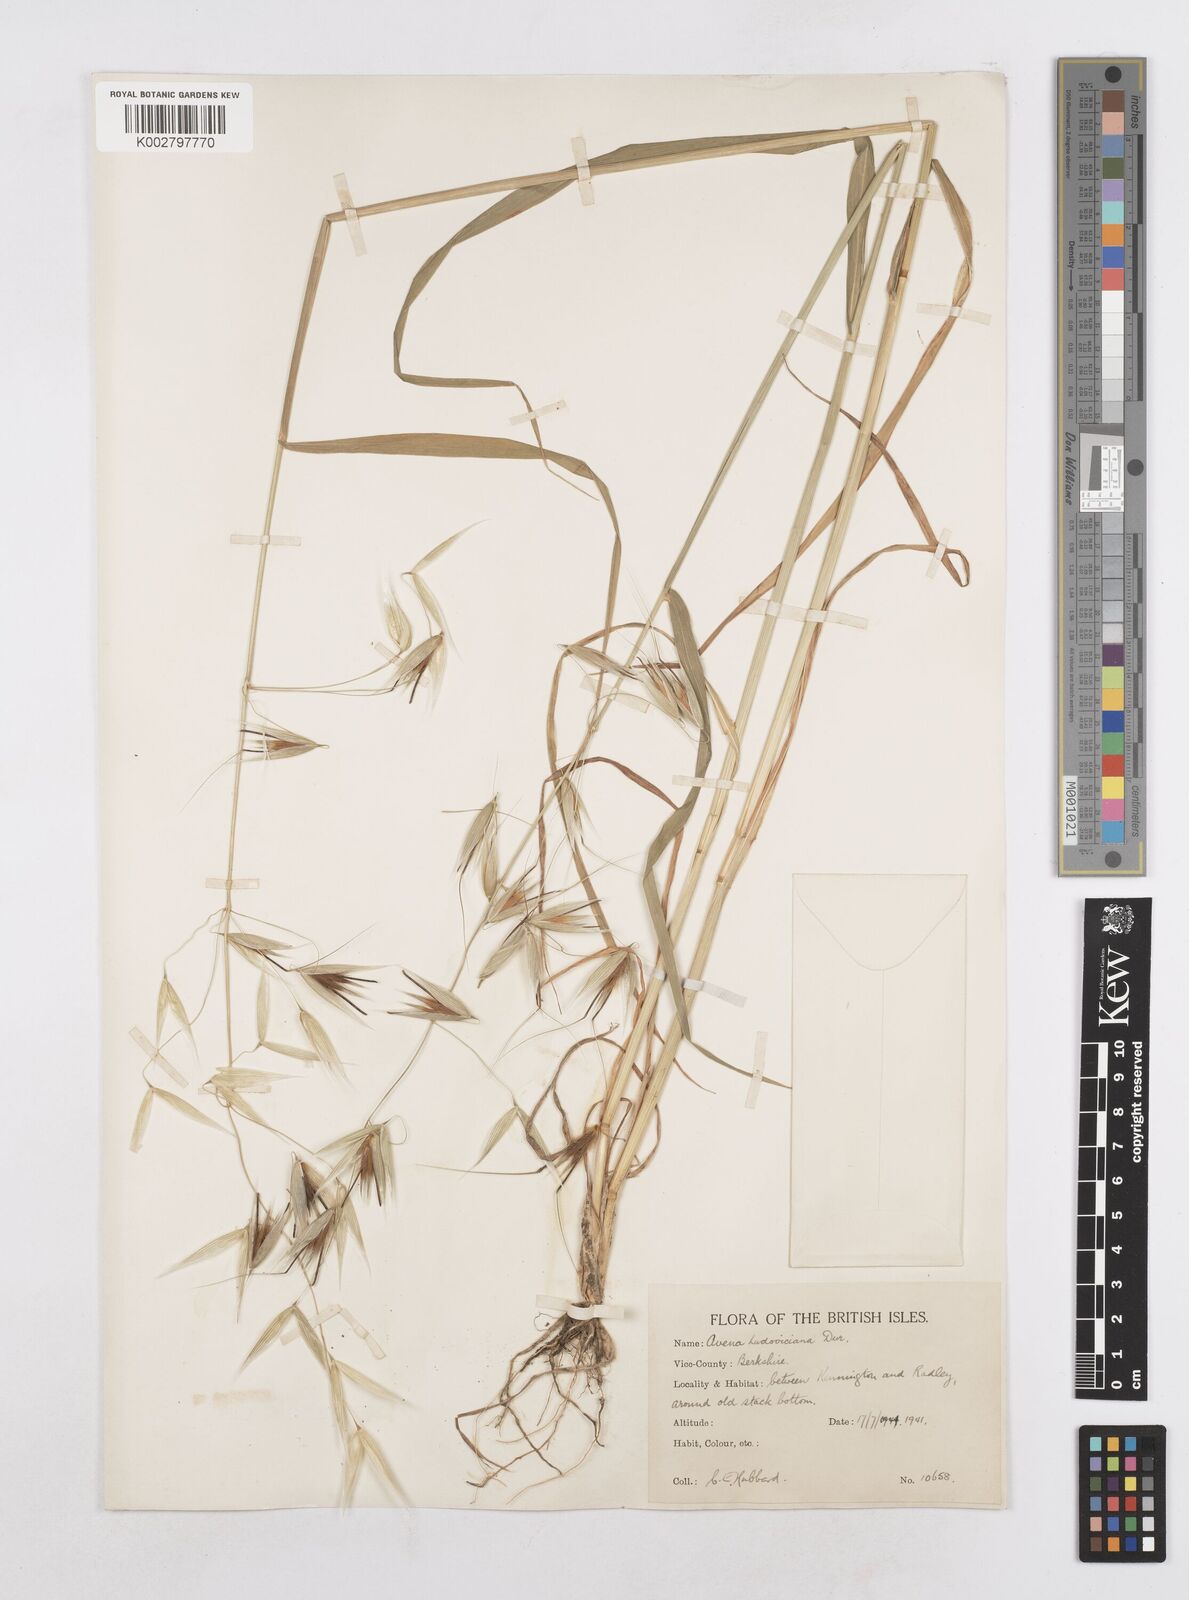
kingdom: Plantae
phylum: Tracheophyta
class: Liliopsida
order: Poales
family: Poaceae
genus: Avena
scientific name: Avena sterilis
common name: Animated oat
